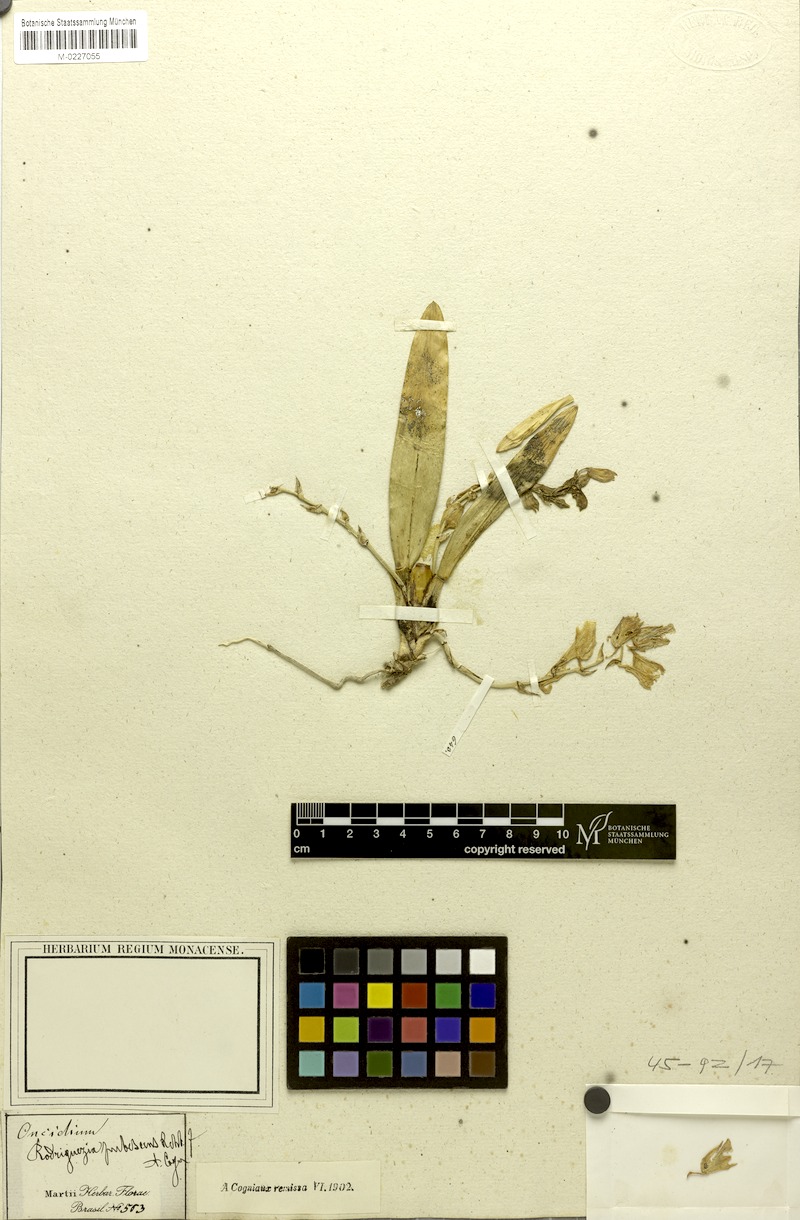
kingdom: Plantae
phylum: Tracheophyta
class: Liliopsida
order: Asparagales
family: Orchidaceae
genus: Rodriguezia
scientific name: Rodriguezia pubescens
